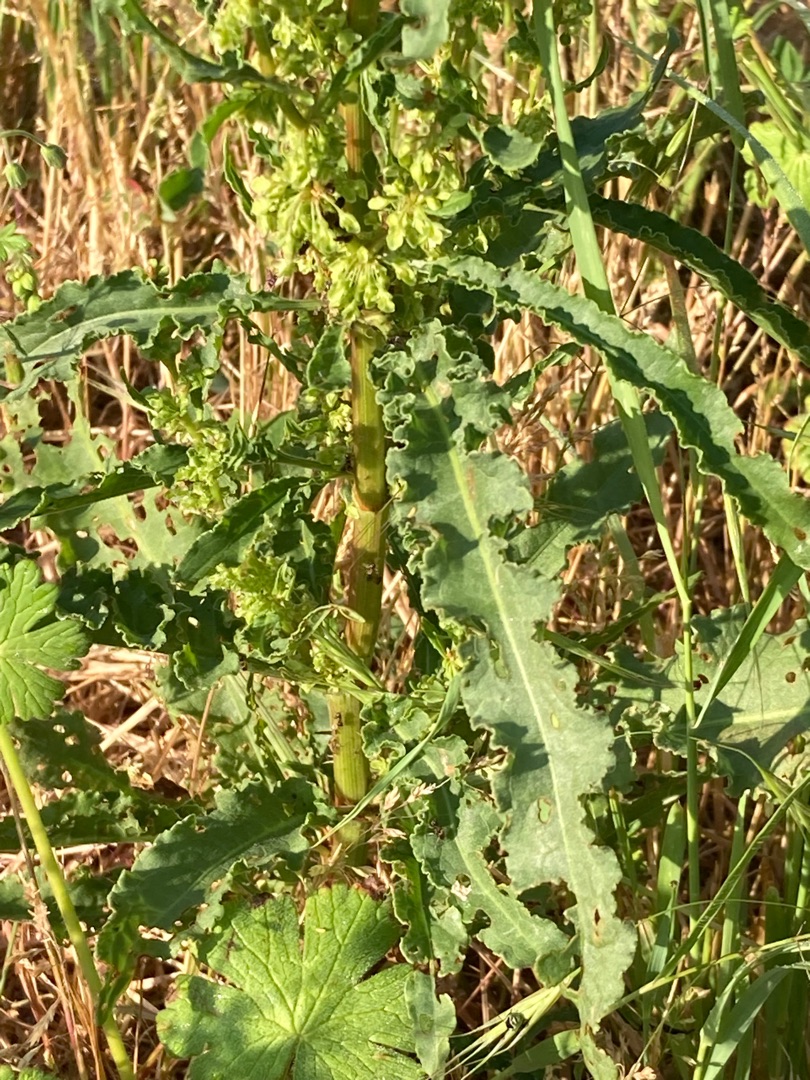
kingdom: Plantae
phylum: Tracheophyta
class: Magnoliopsida
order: Caryophyllales
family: Polygonaceae
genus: Rumex
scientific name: Rumex crispus
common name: Kruset skræppe
